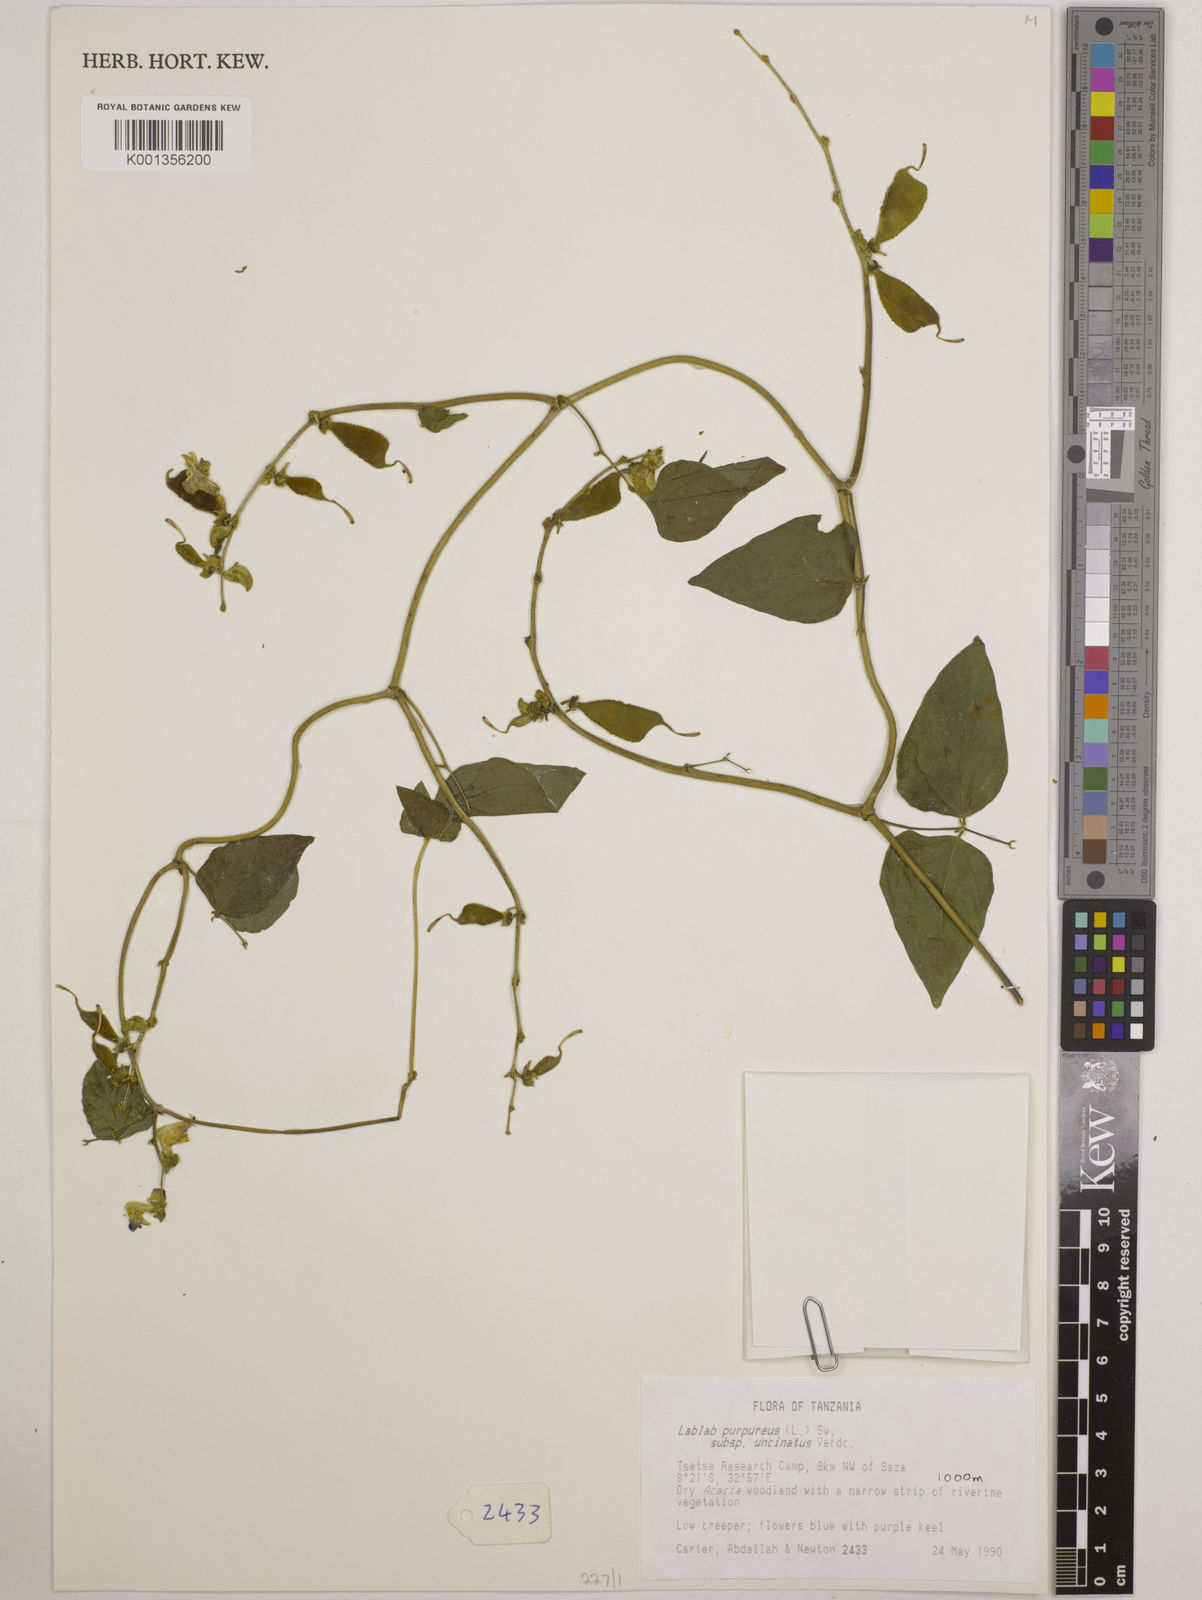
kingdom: Plantae
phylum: Tracheophyta
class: Magnoliopsida
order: Fabales
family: Fabaceae
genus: Lablab
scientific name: Lablab purpureus
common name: Lablab-bean
